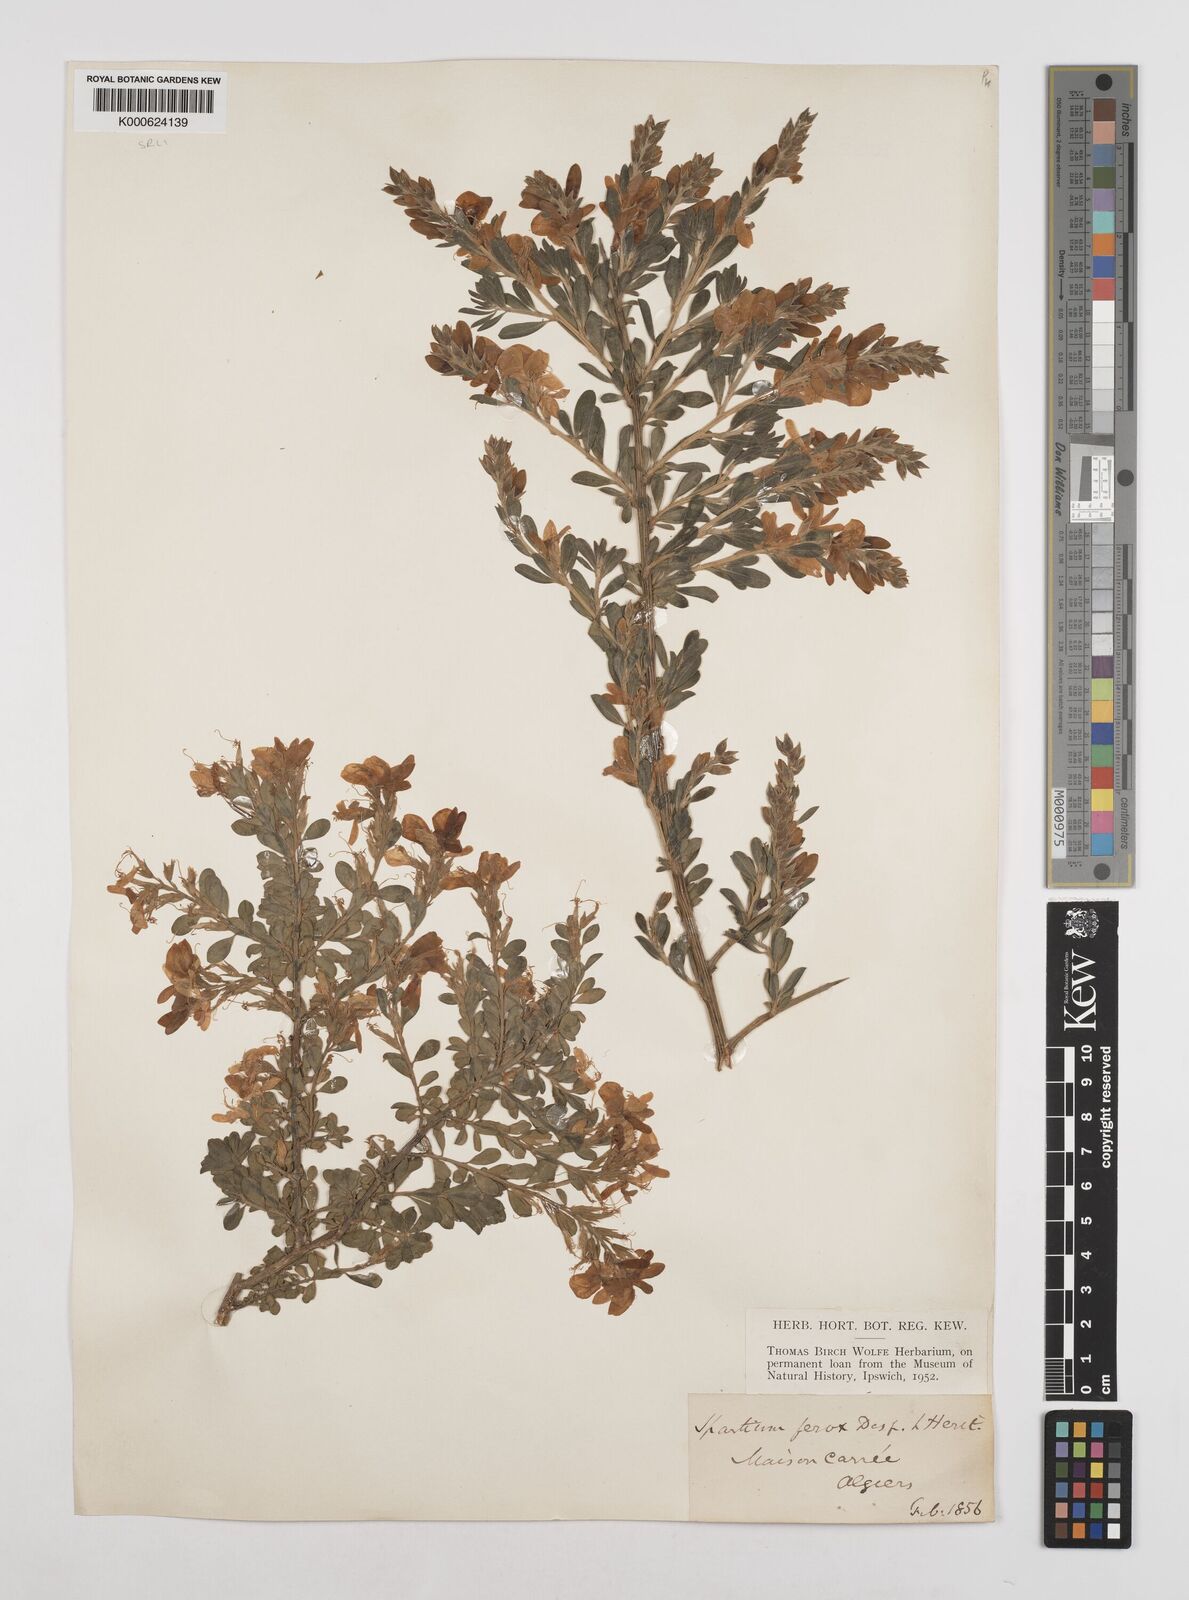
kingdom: Plantae
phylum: Tracheophyta
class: Magnoliopsida
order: Fabales
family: Fabaceae
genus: Genista
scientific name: Genista ferox
